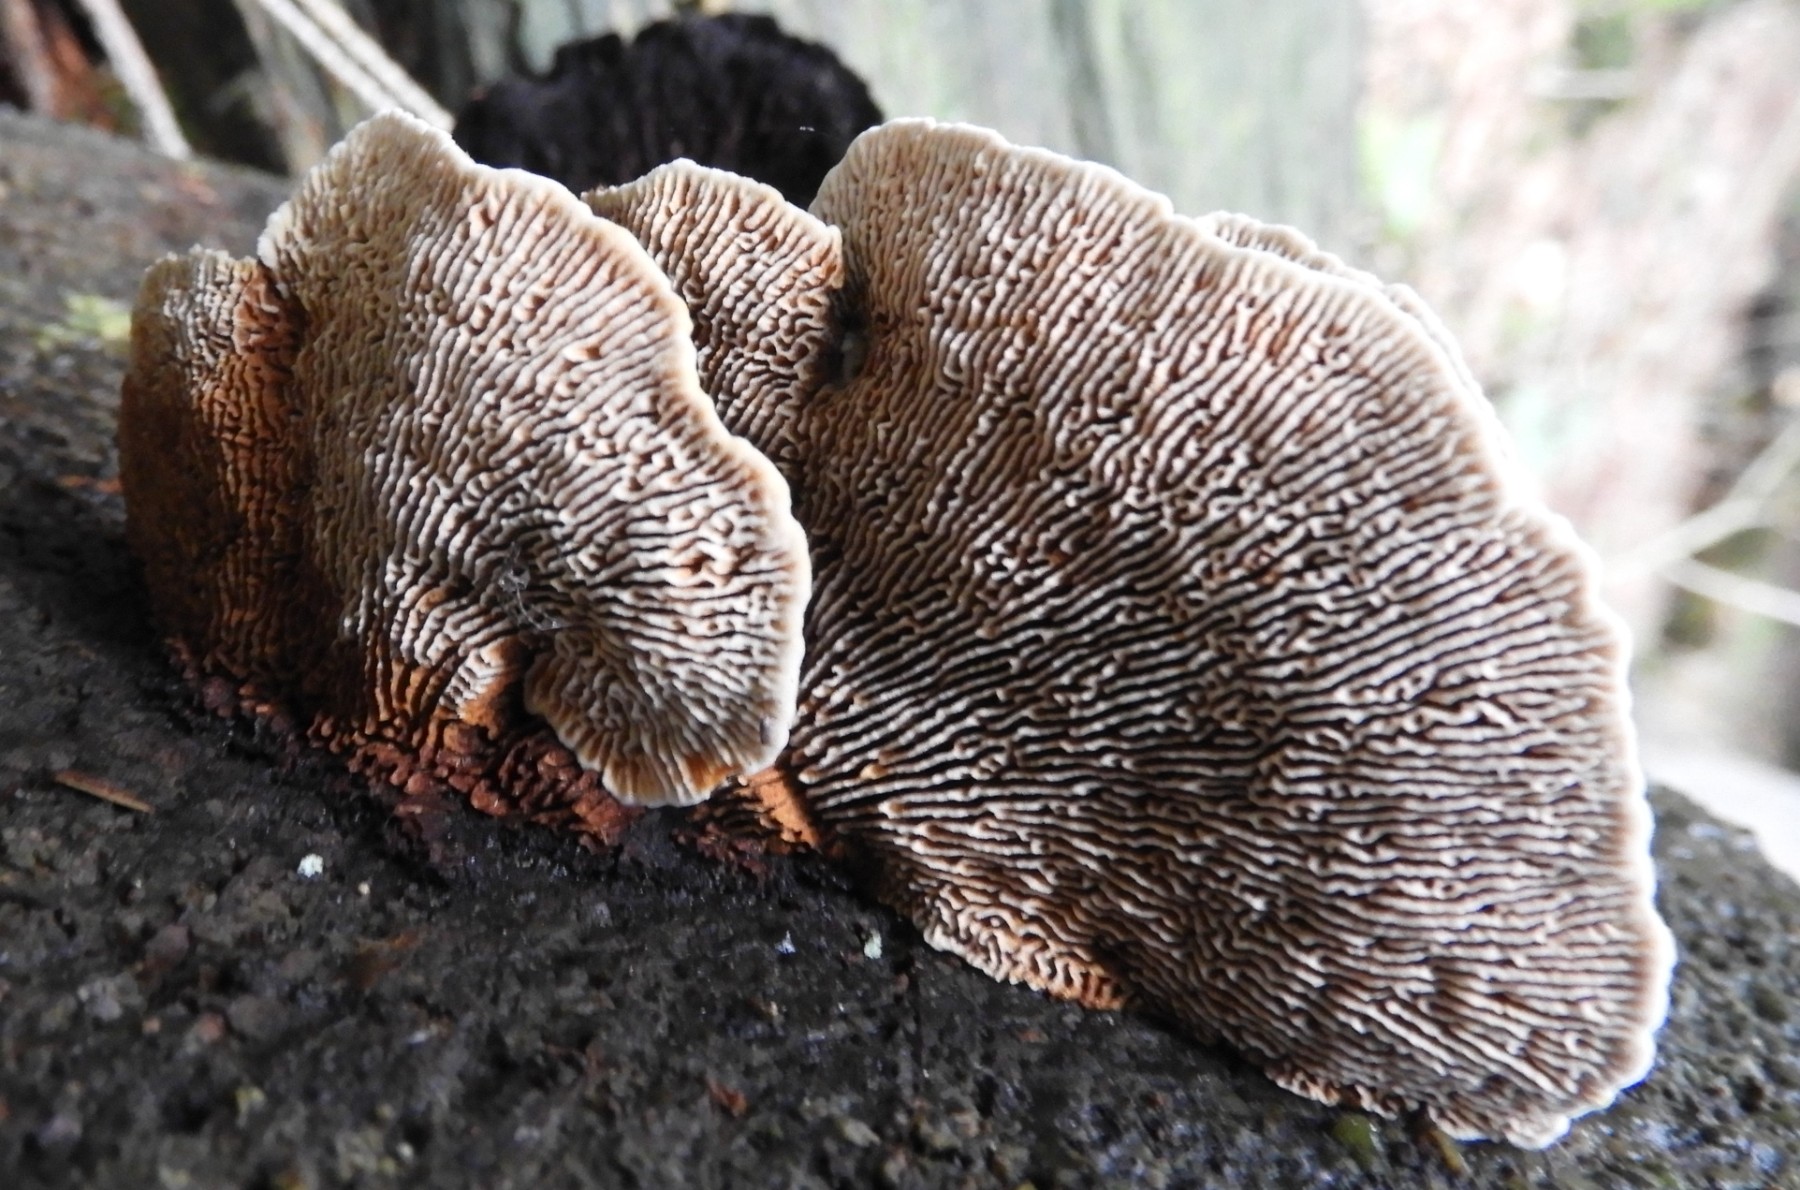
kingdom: Fungi
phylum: Basidiomycota
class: Agaricomycetes
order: Gloeophyllales
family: Gloeophyllaceae
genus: Gloeophyllum
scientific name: Gloeophyllum sepiarium
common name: fyrre-korkhat
